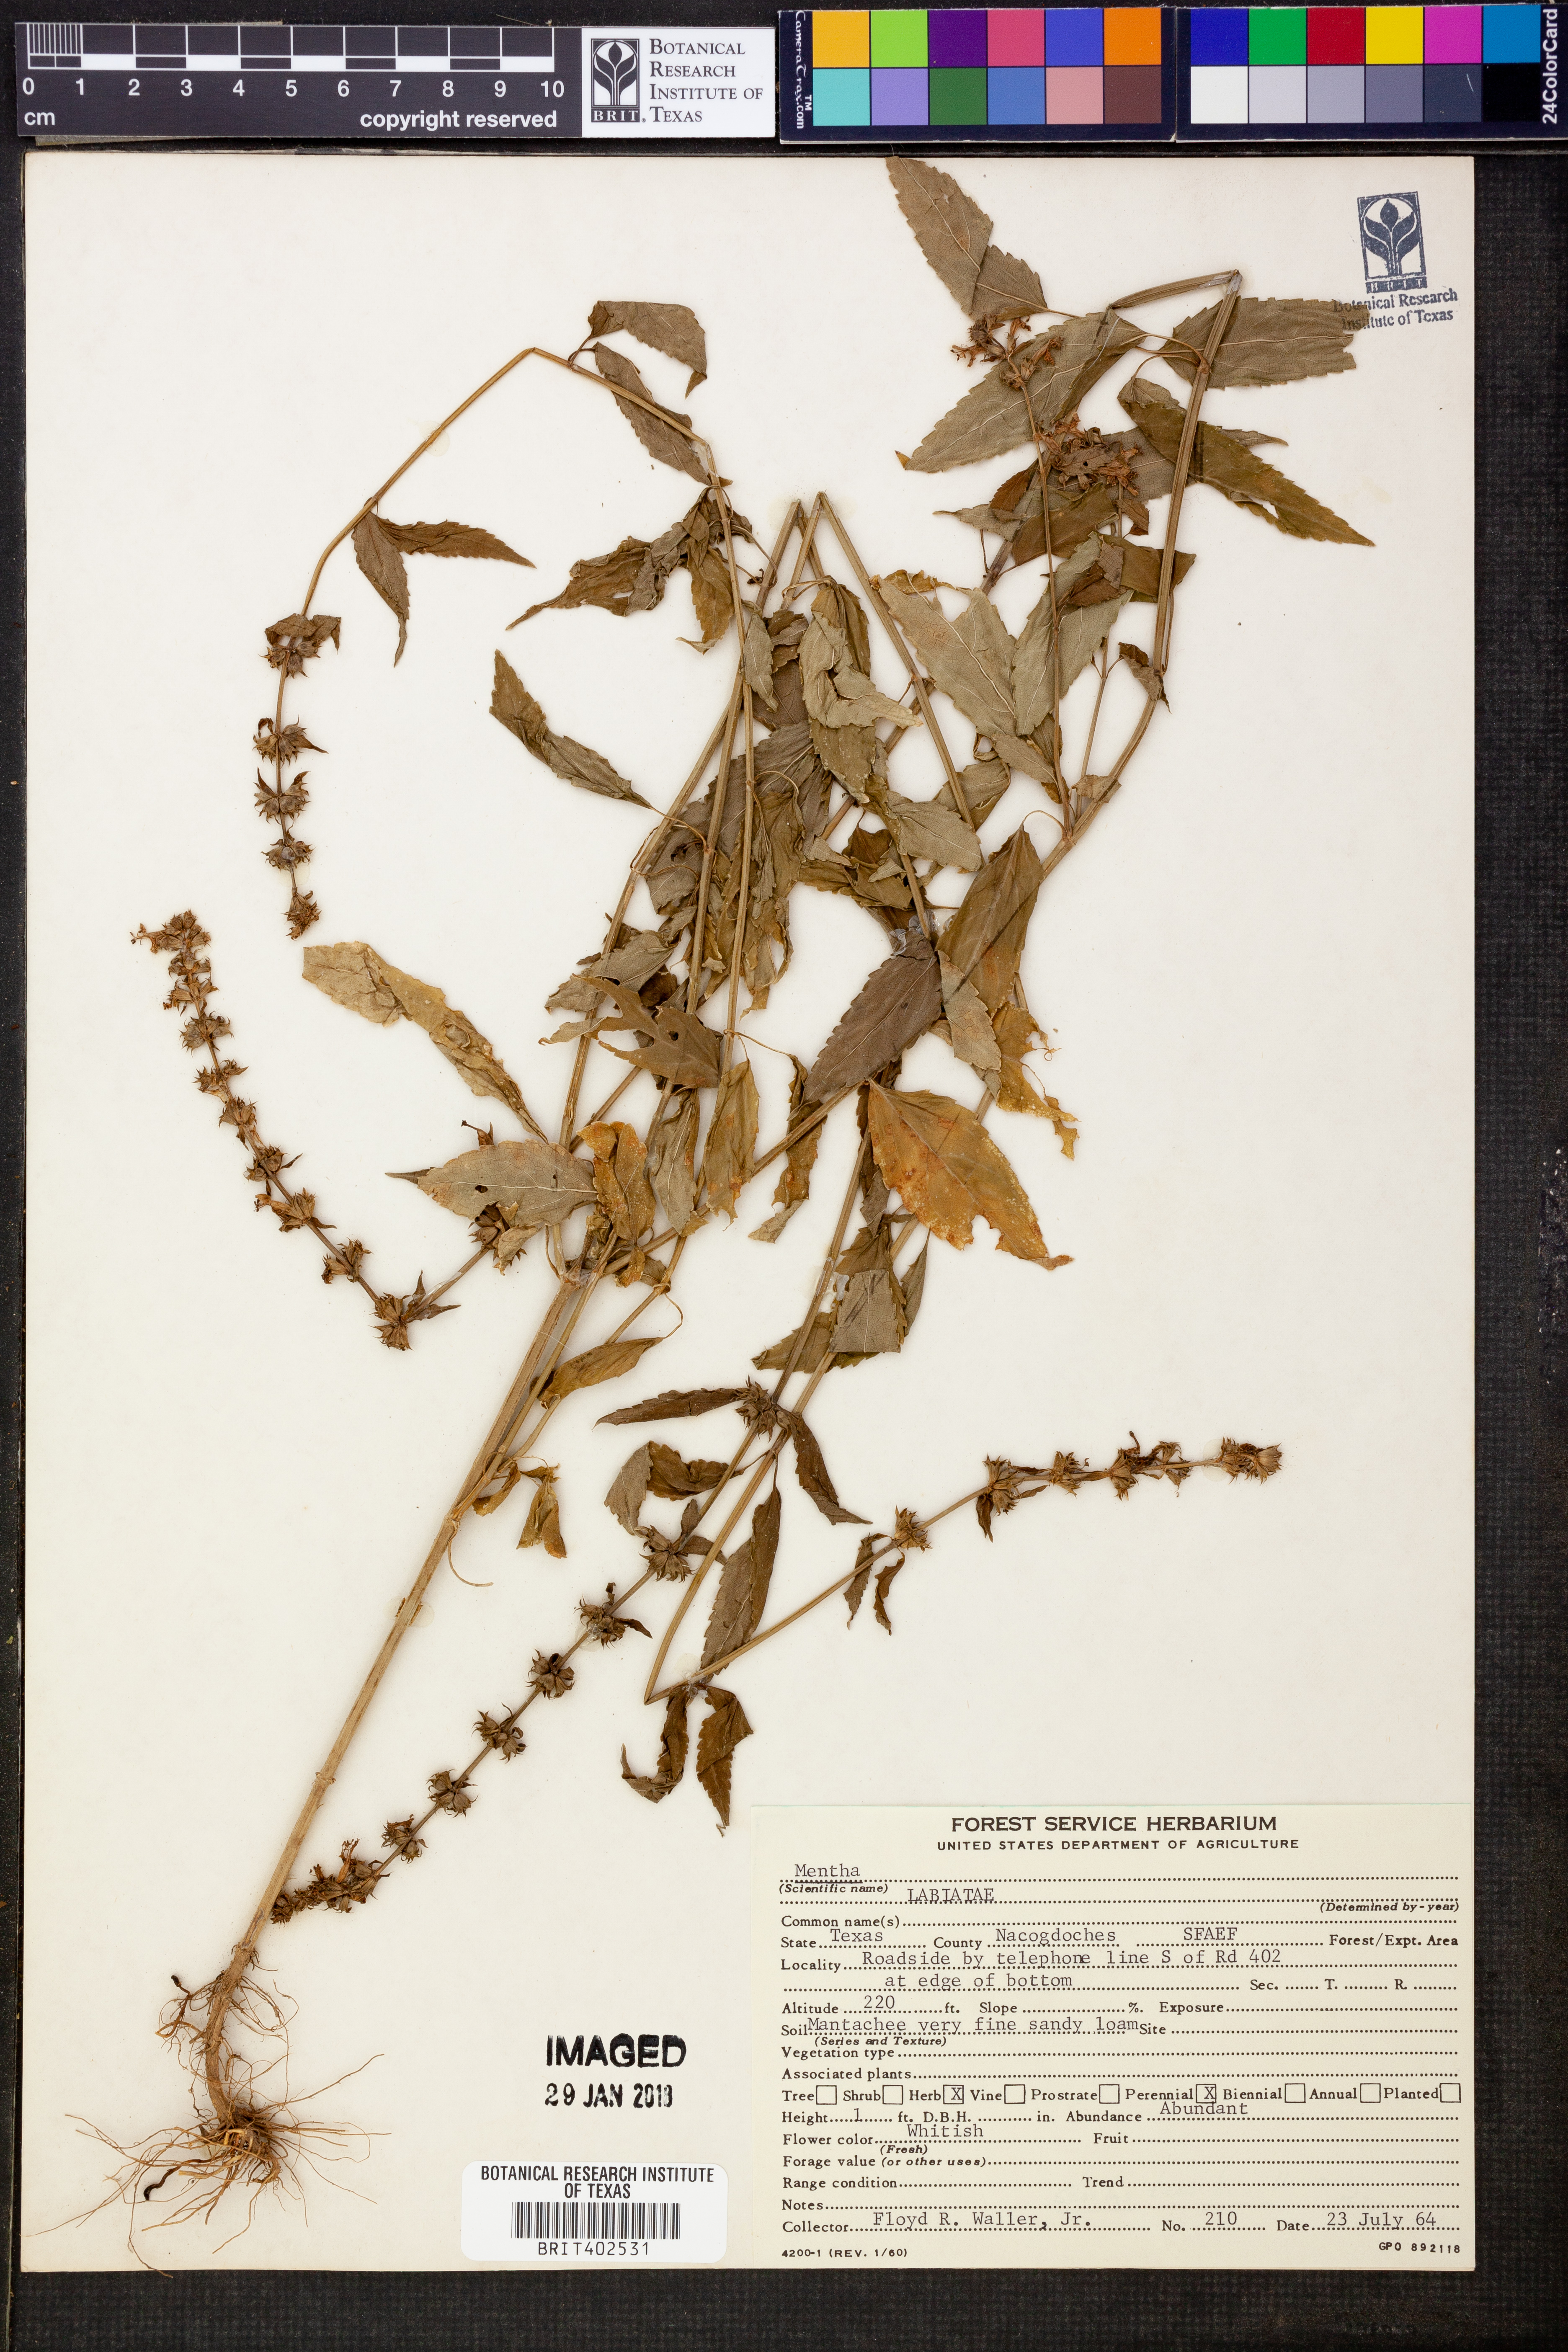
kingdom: Plantae
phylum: Tracheophyta
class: Magnoliopsida
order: Lamiales
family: Lamiaceae
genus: Mentha
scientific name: Mentha
